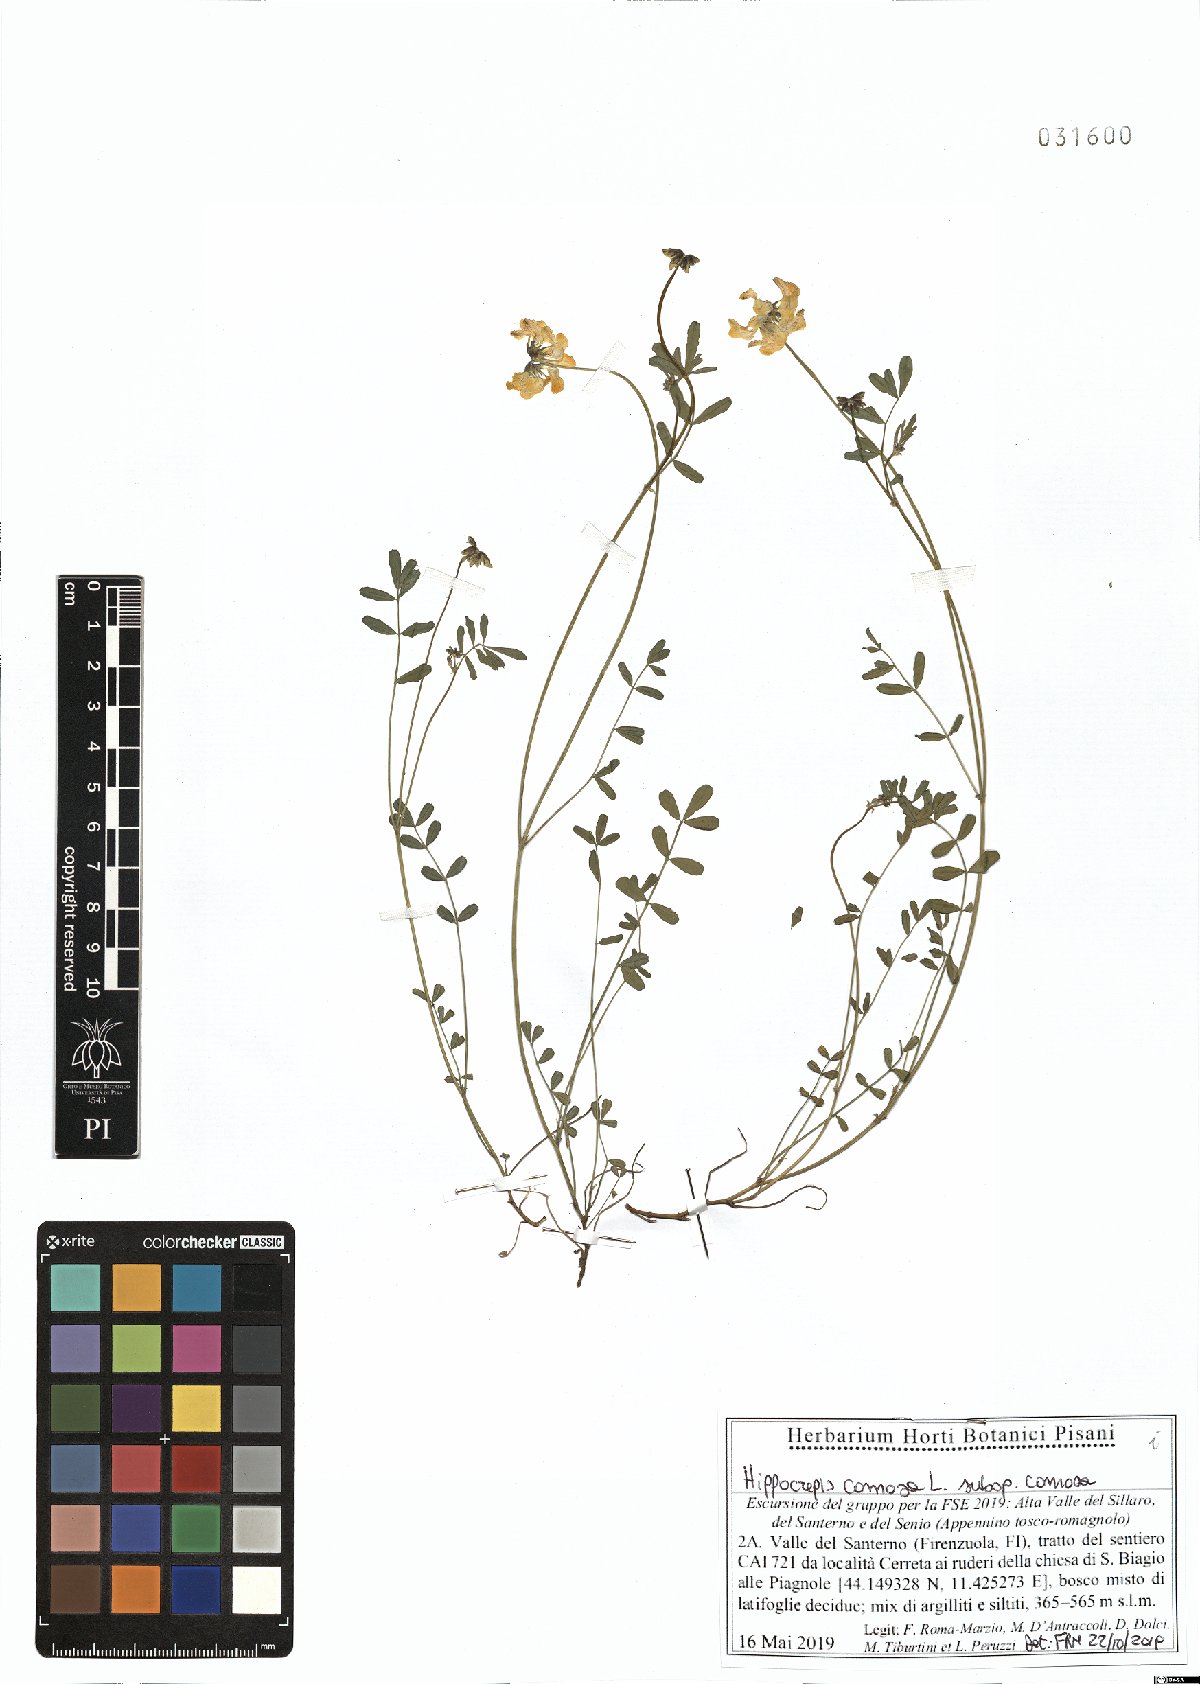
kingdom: Plantae
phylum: Tracheophyta
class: Magnoliopsida
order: Fabales
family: Fabaceae
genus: Hippocrepis
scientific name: Hippocrepis comosa
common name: Horseshoe vetch
